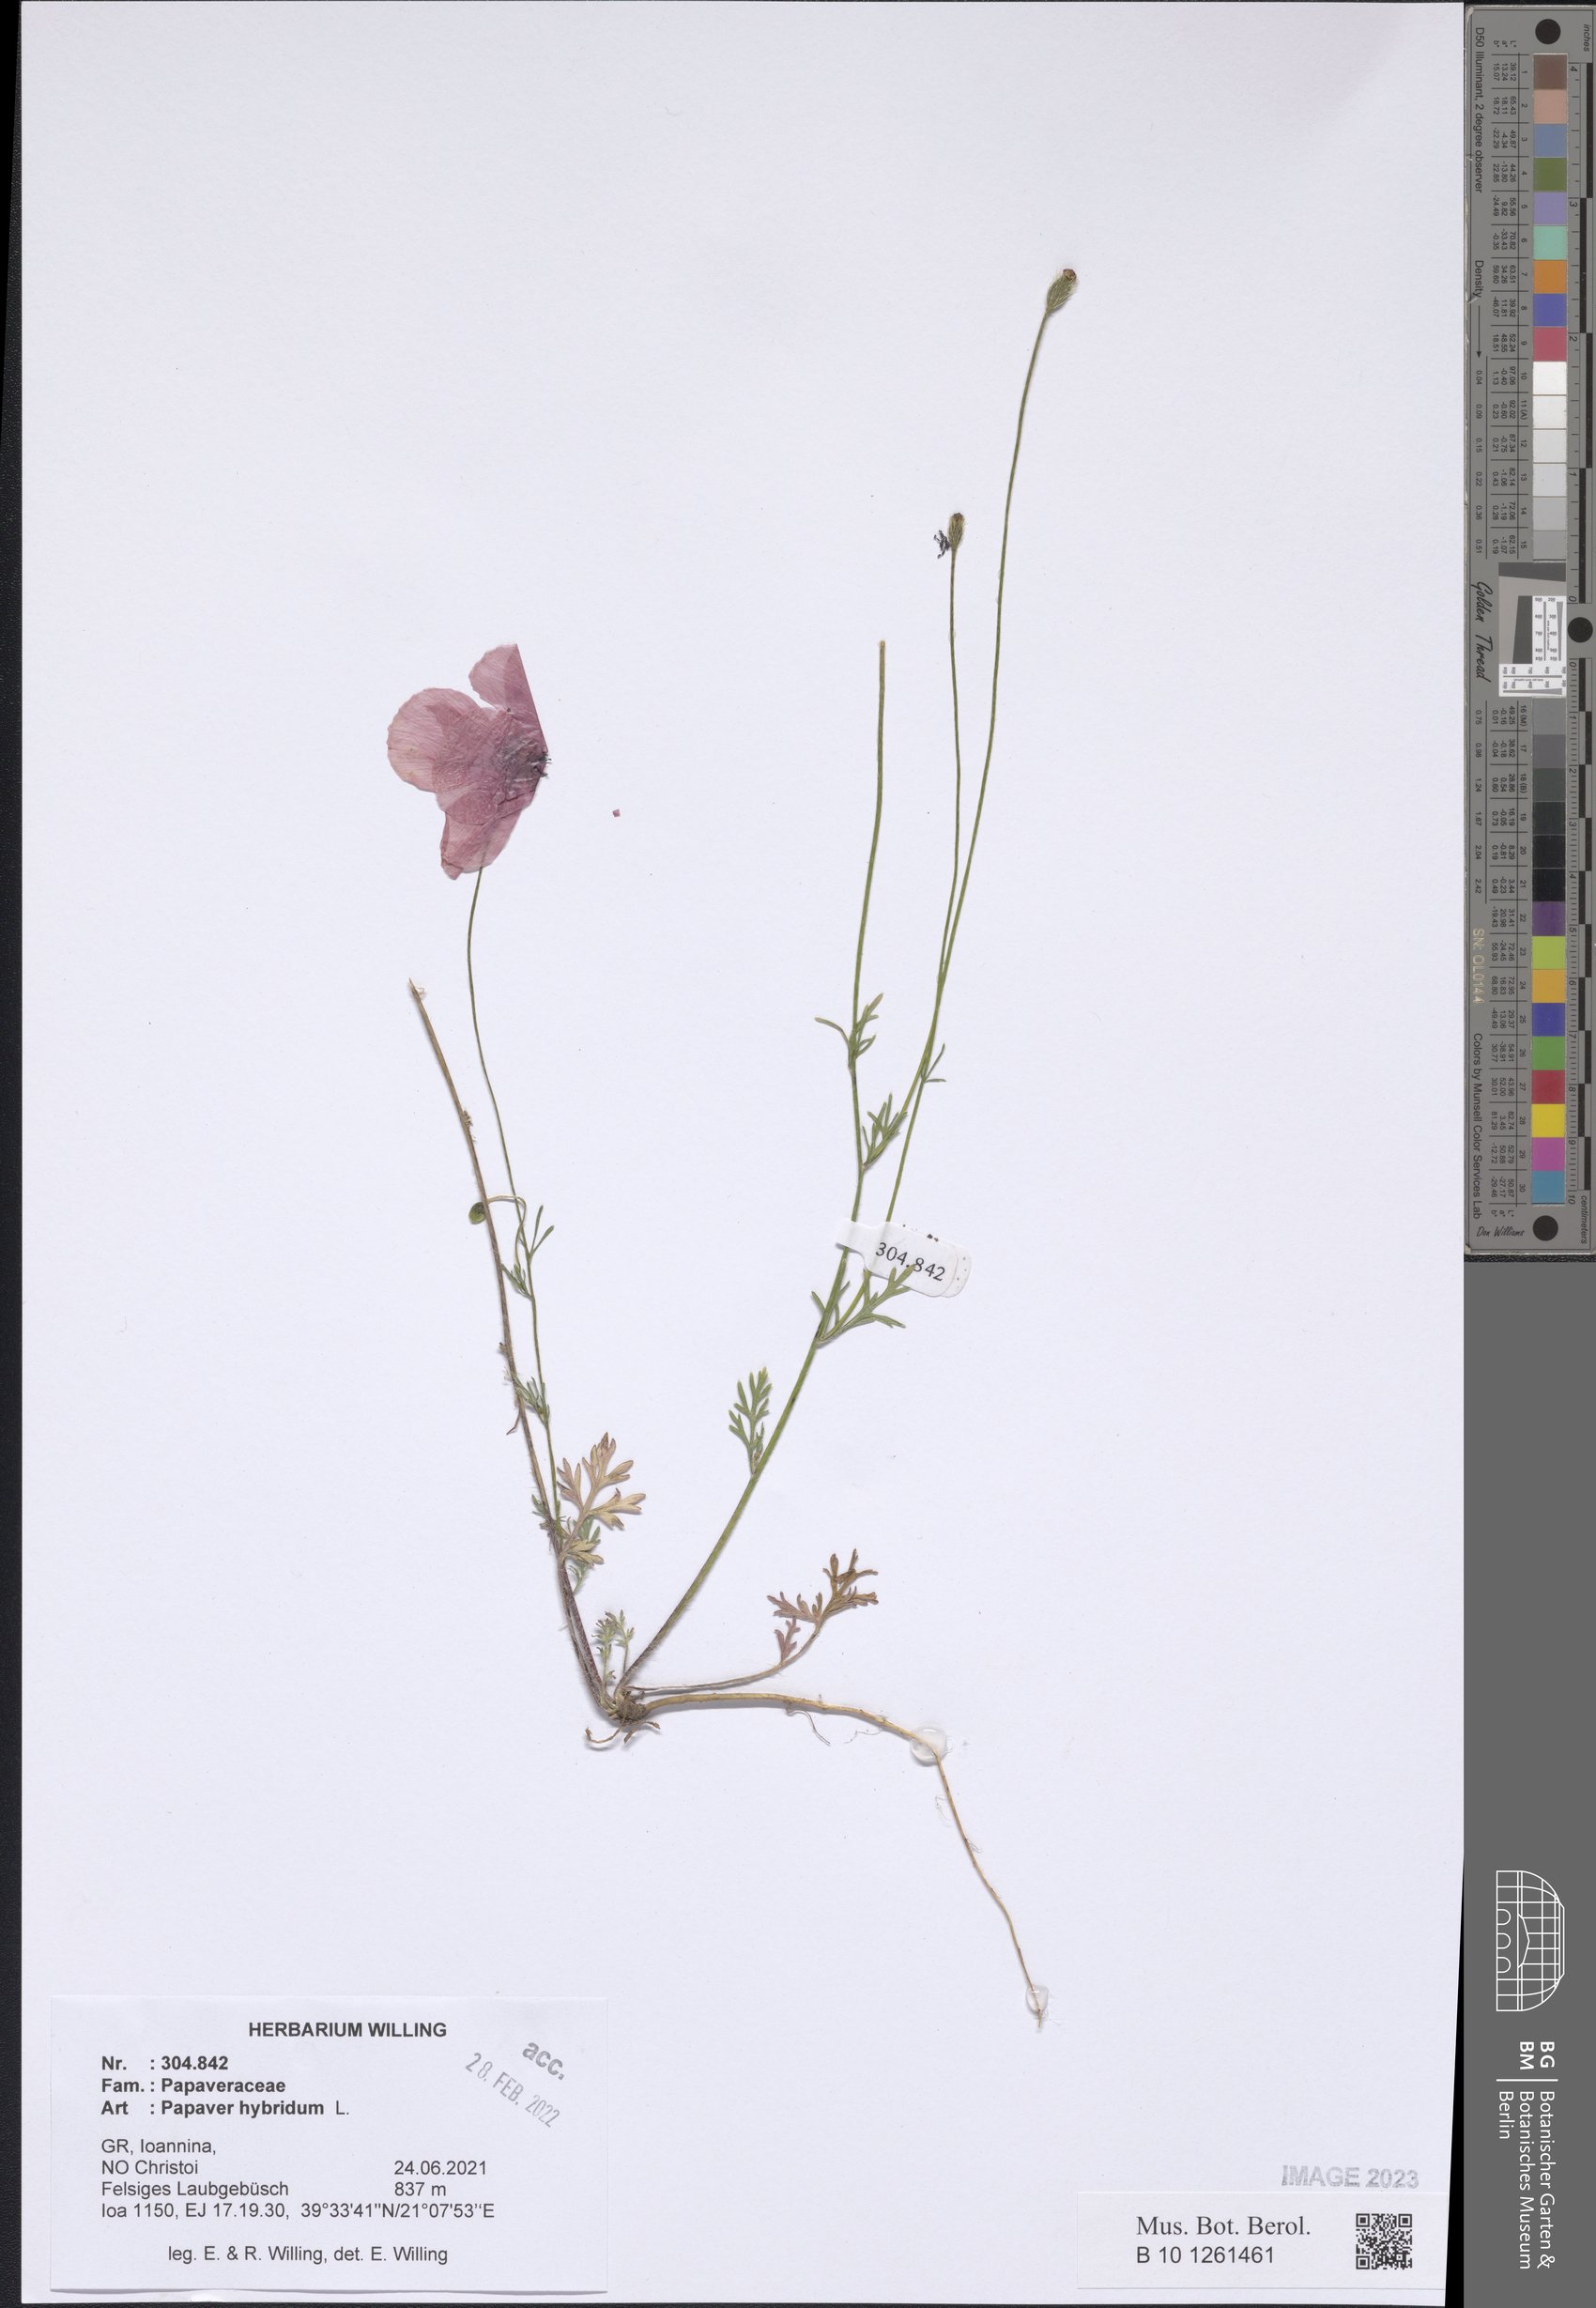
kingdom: Plantae
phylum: Tracheophyta
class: Magnoliopsida
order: Ranunculales
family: Papaveraceae
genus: Roemeria
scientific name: Roemeria hispida
